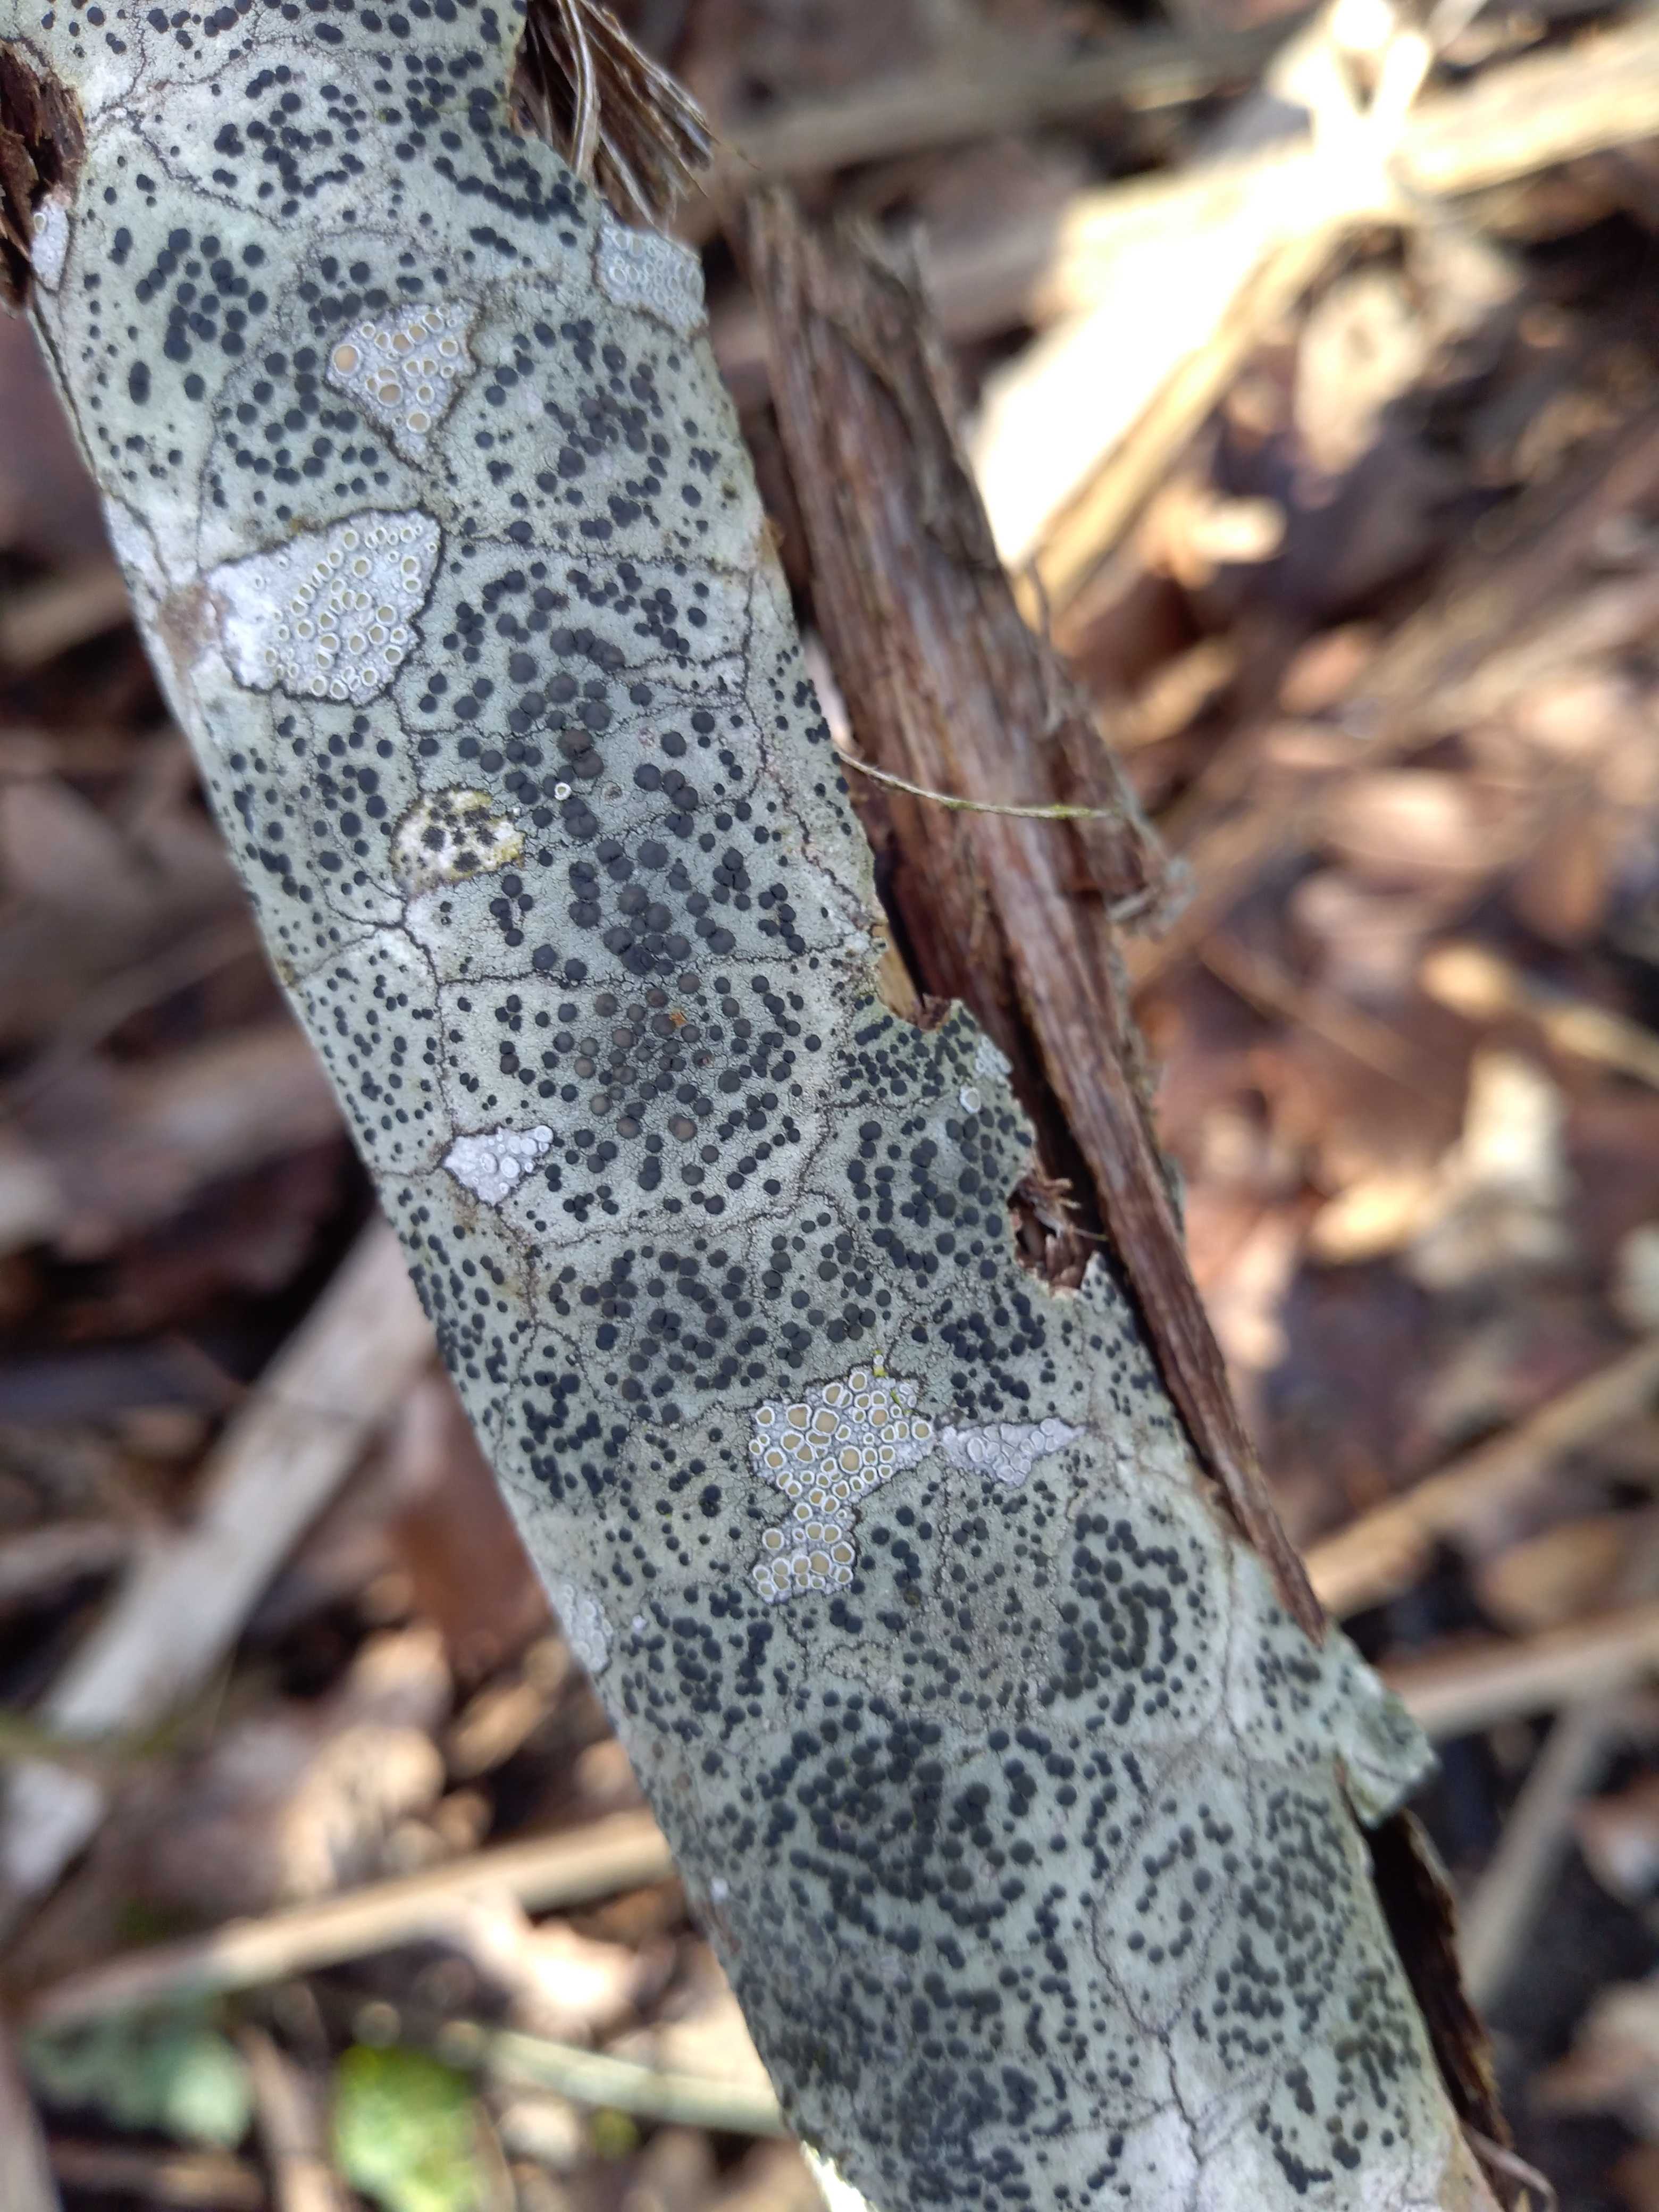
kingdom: Fungi
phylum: Ascomycota
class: Lecanoromycetes
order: Lecanorales
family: Lecanoraceae
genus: Lecidella
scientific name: Lecidella elaeochroma
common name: grågrøn skivelav
